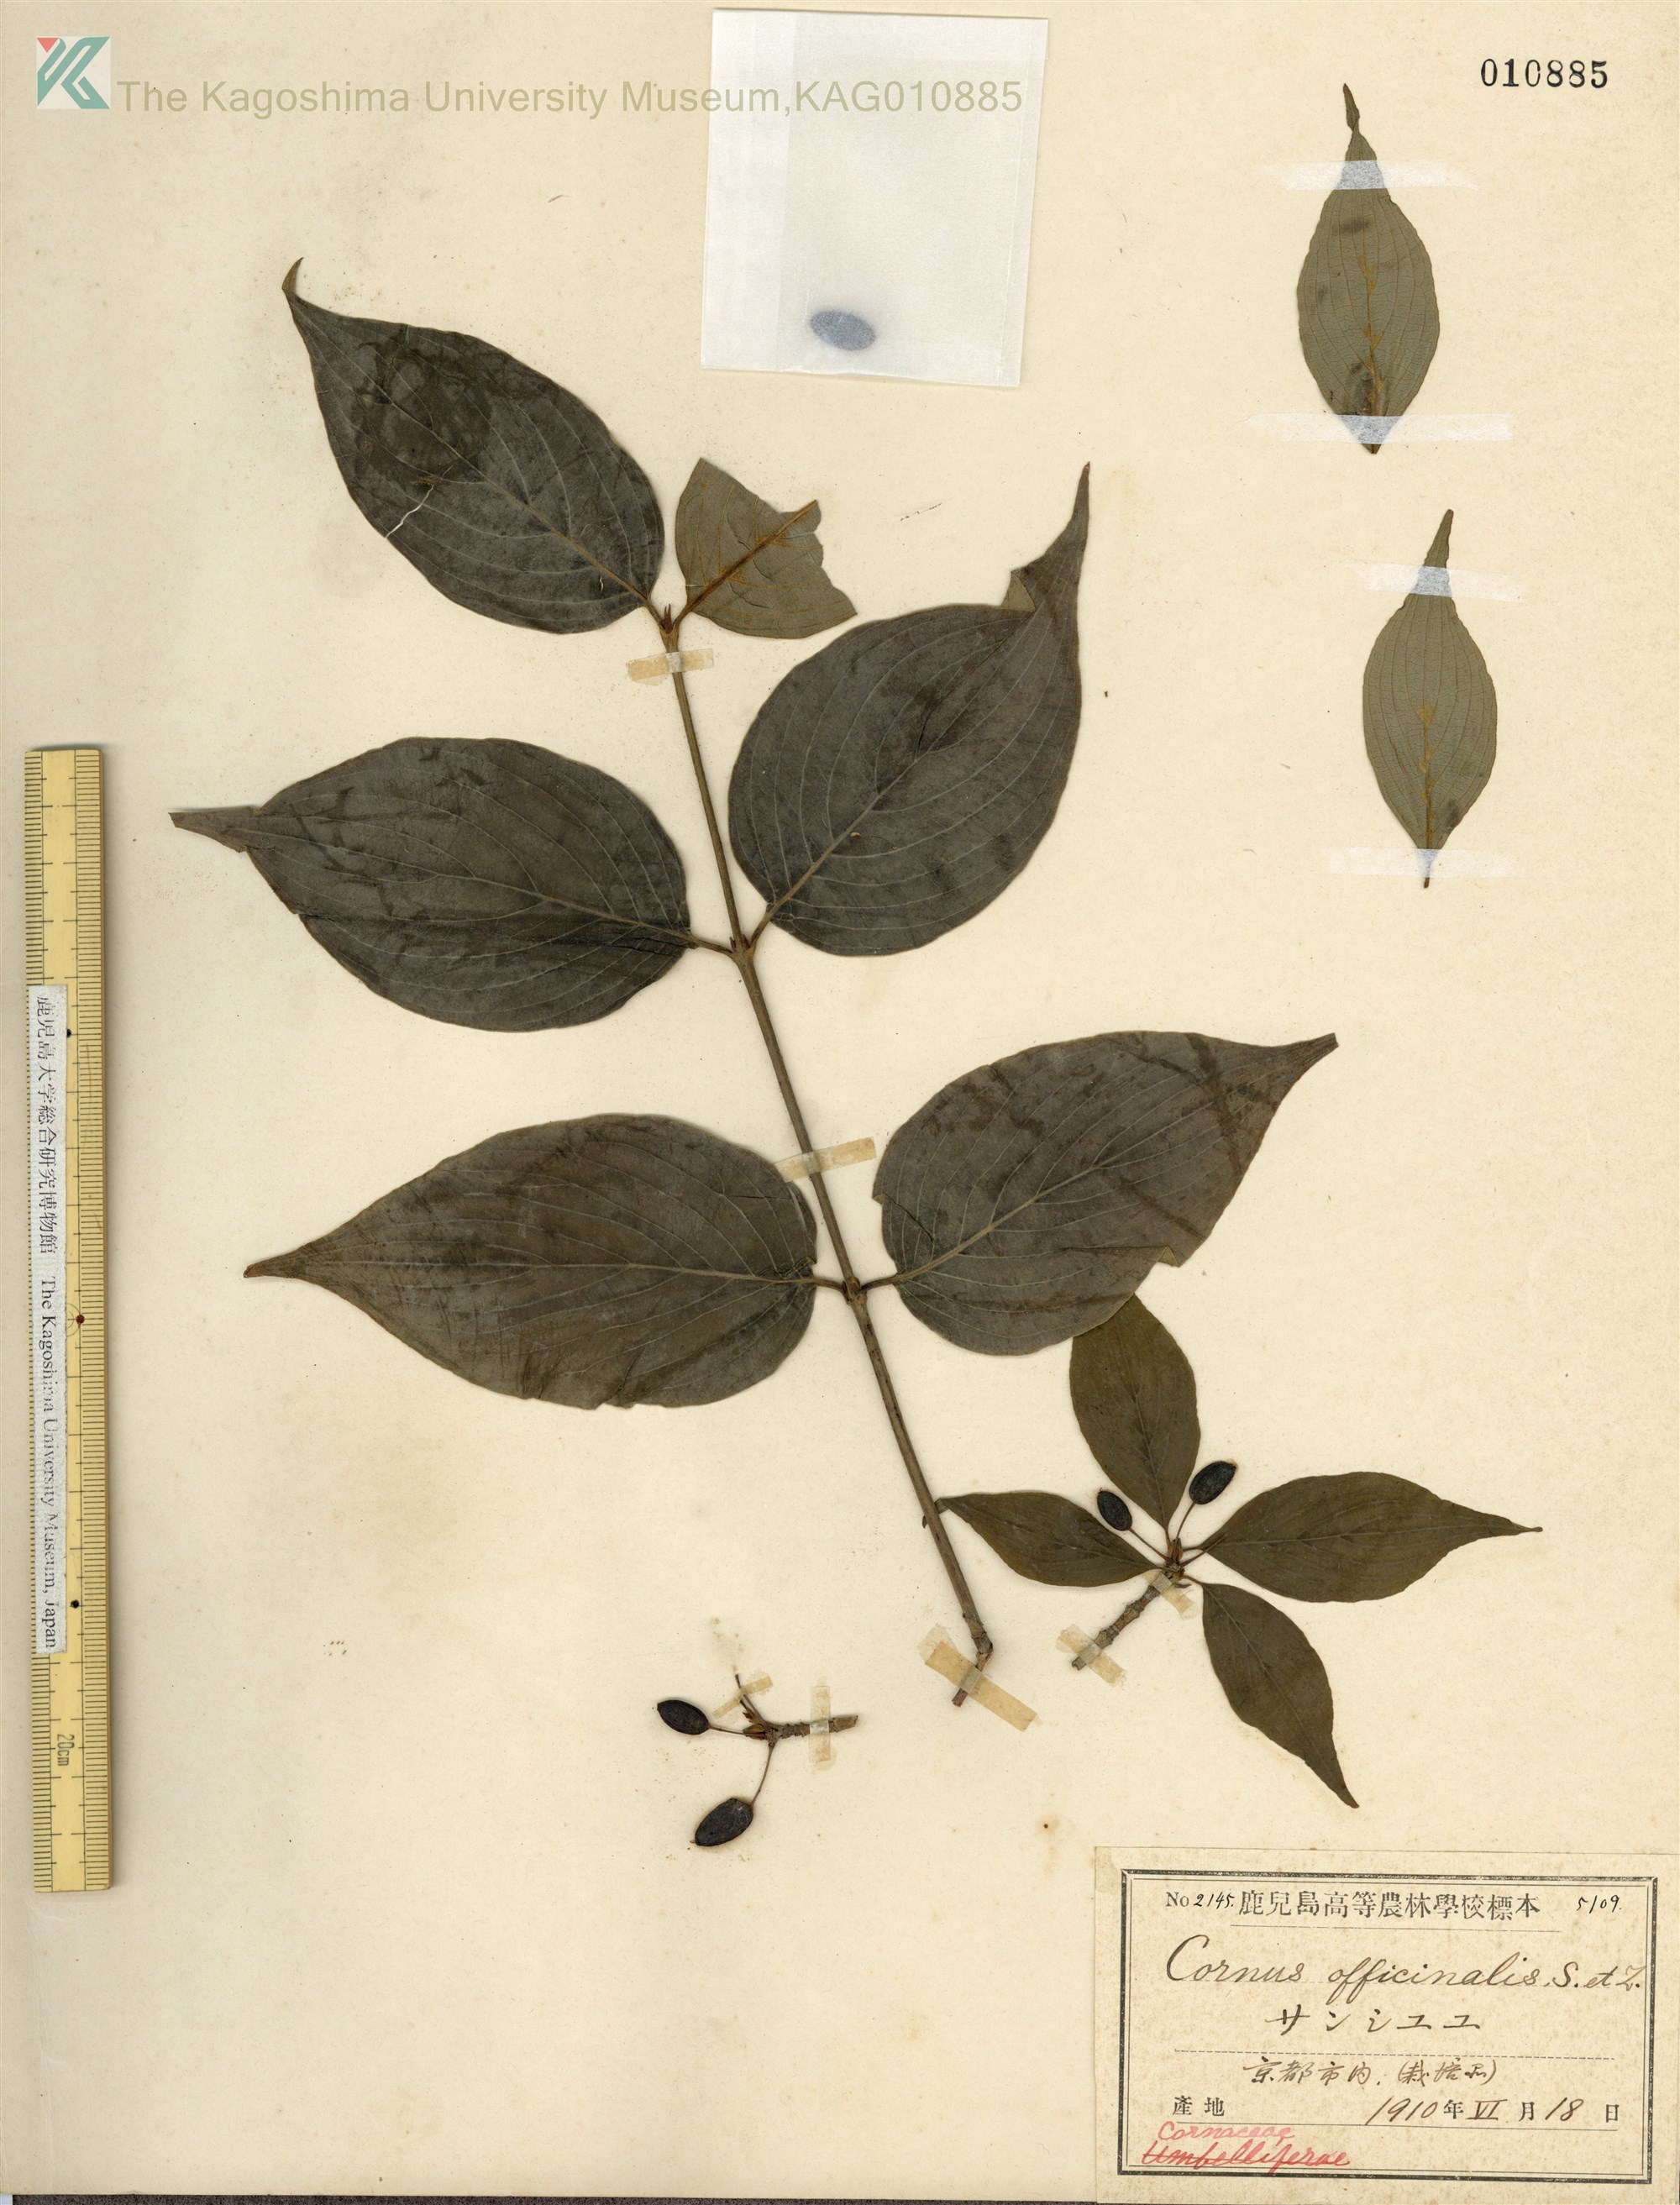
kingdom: Plantae
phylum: Tracheophyta
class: Magnoliopsida
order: Cornales
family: Cornaceae
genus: Cornus
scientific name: Cornus officinalis
